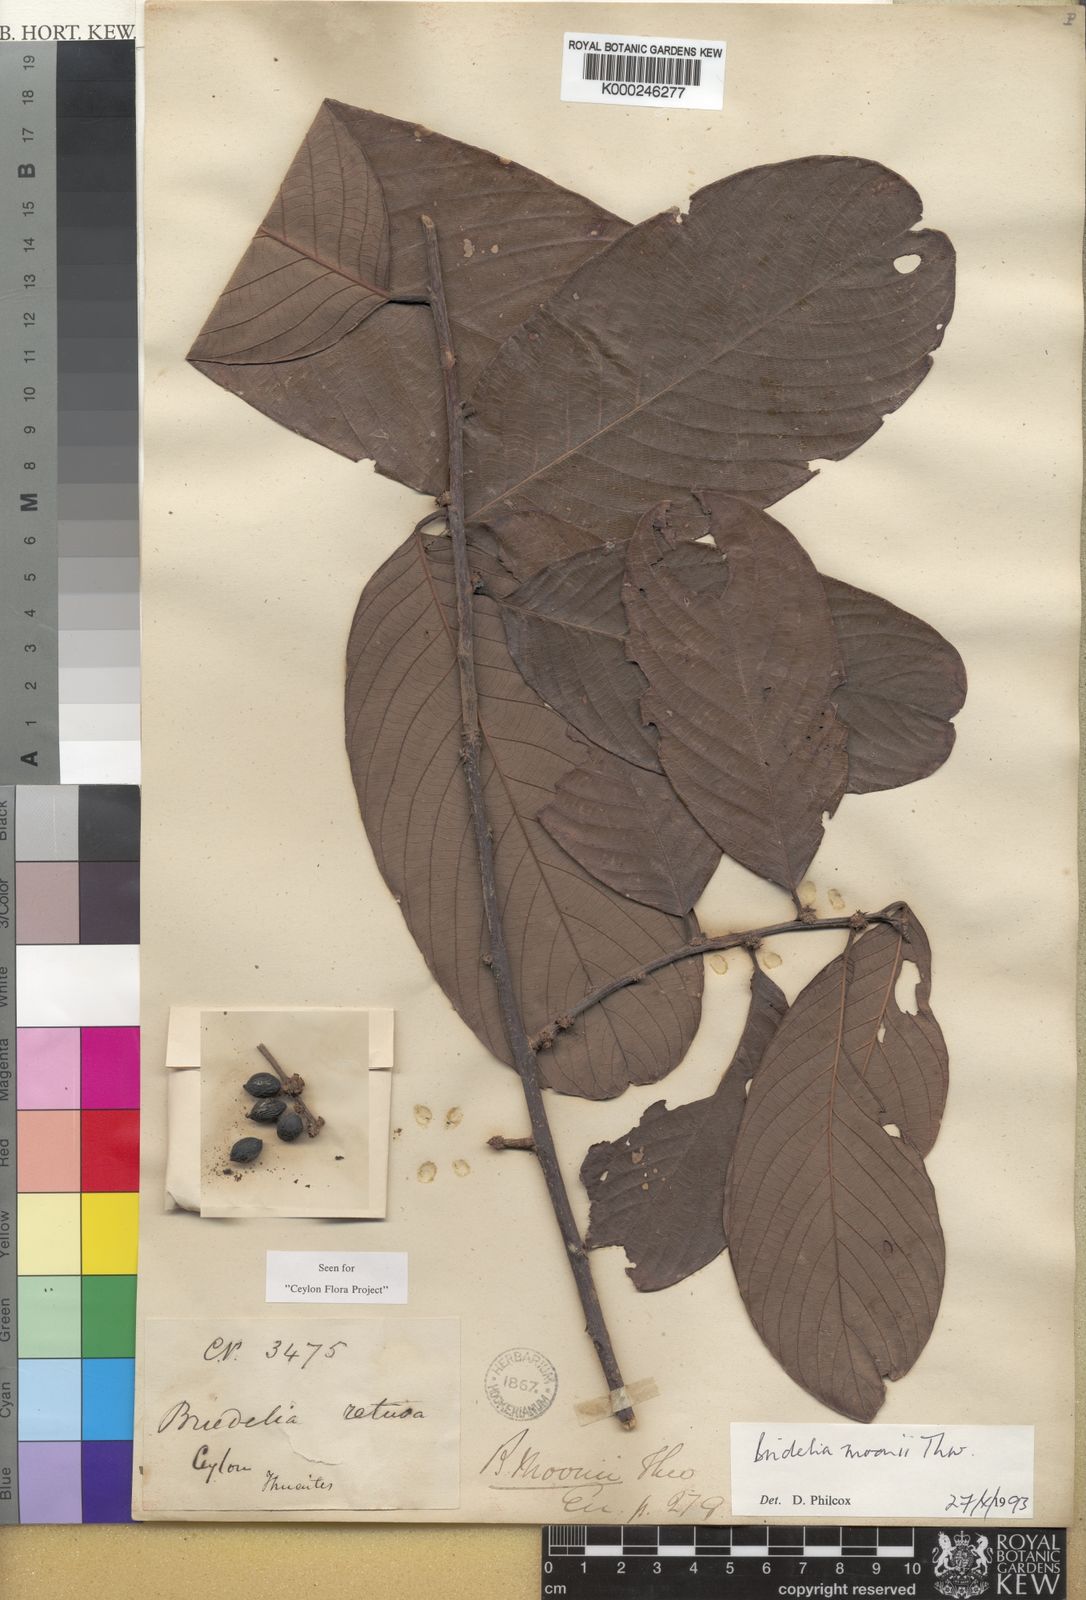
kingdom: Plantae
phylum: Tracheophyta
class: Magnoliopsida
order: Malpighiales
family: Phyllanthaceae
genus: Bridelia
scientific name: Bridelia moonii
